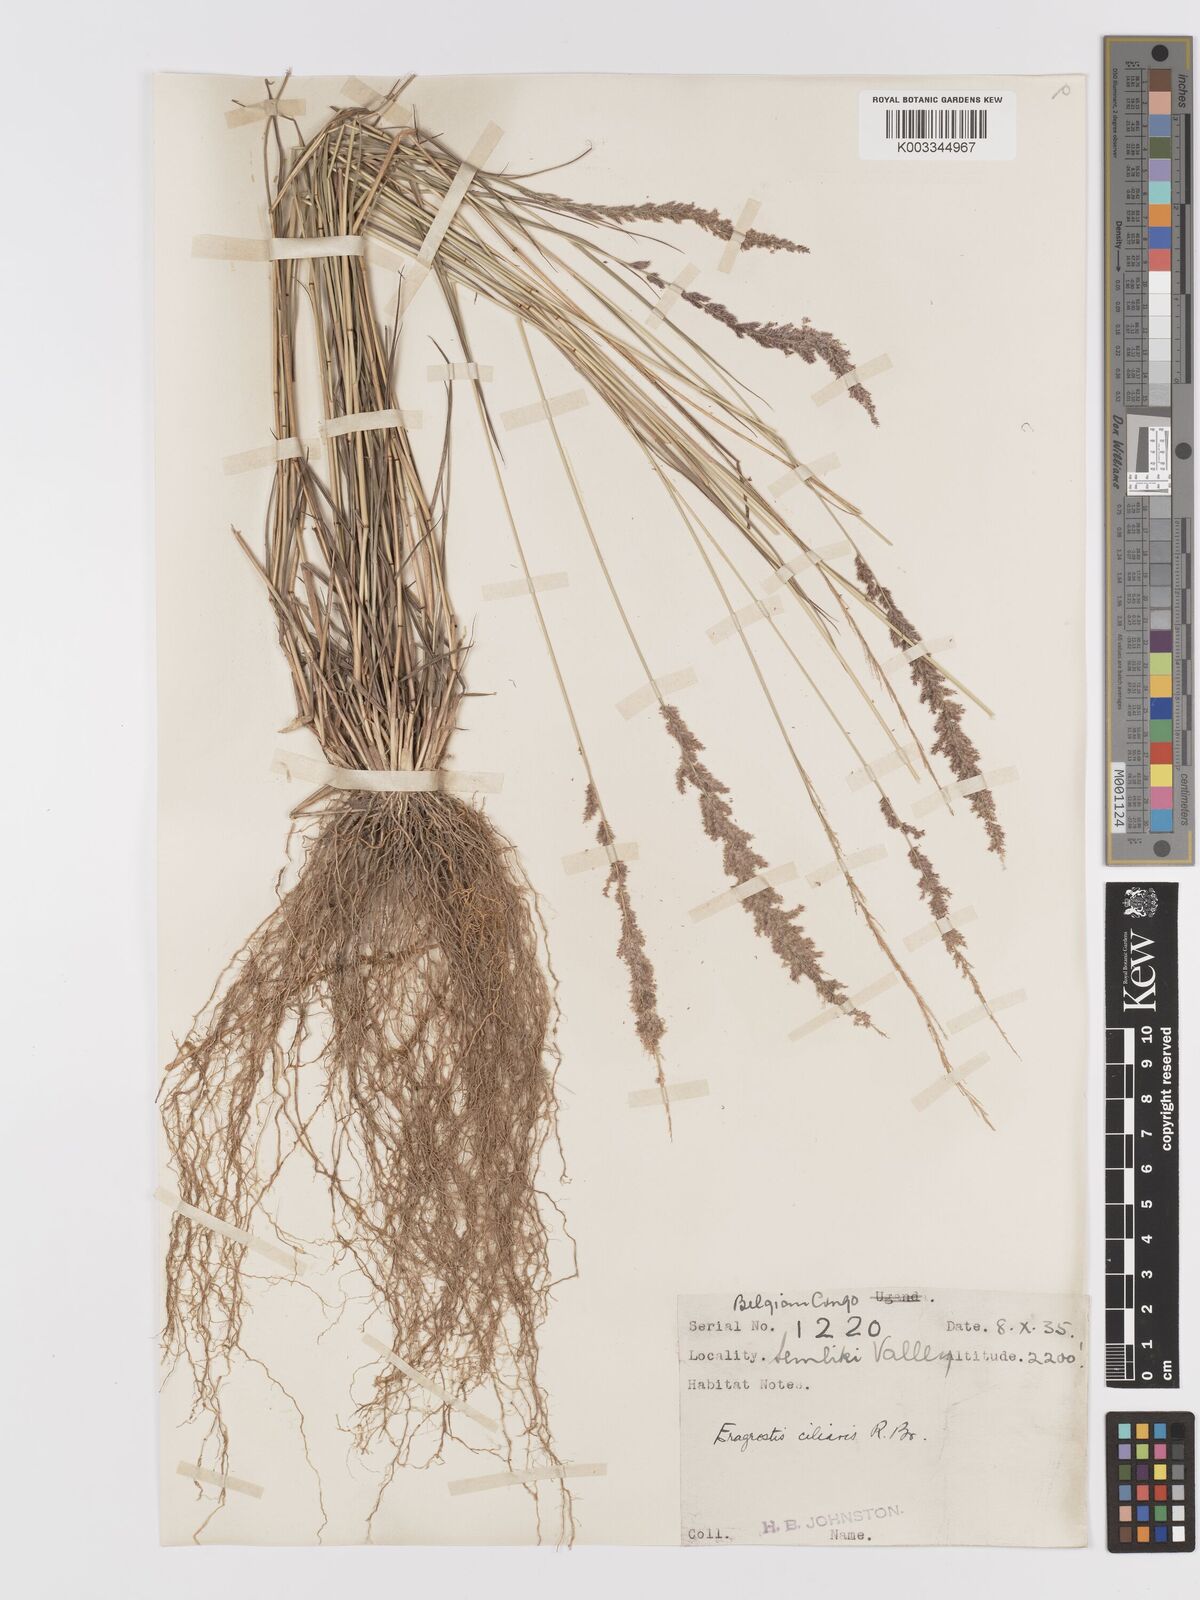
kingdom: Plantae
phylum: Tracheophyta
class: Liliopsida
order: Poales
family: Poaceae
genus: Eragrostis
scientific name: Eragrostis ciliaris
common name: Gophertail lovegrass
